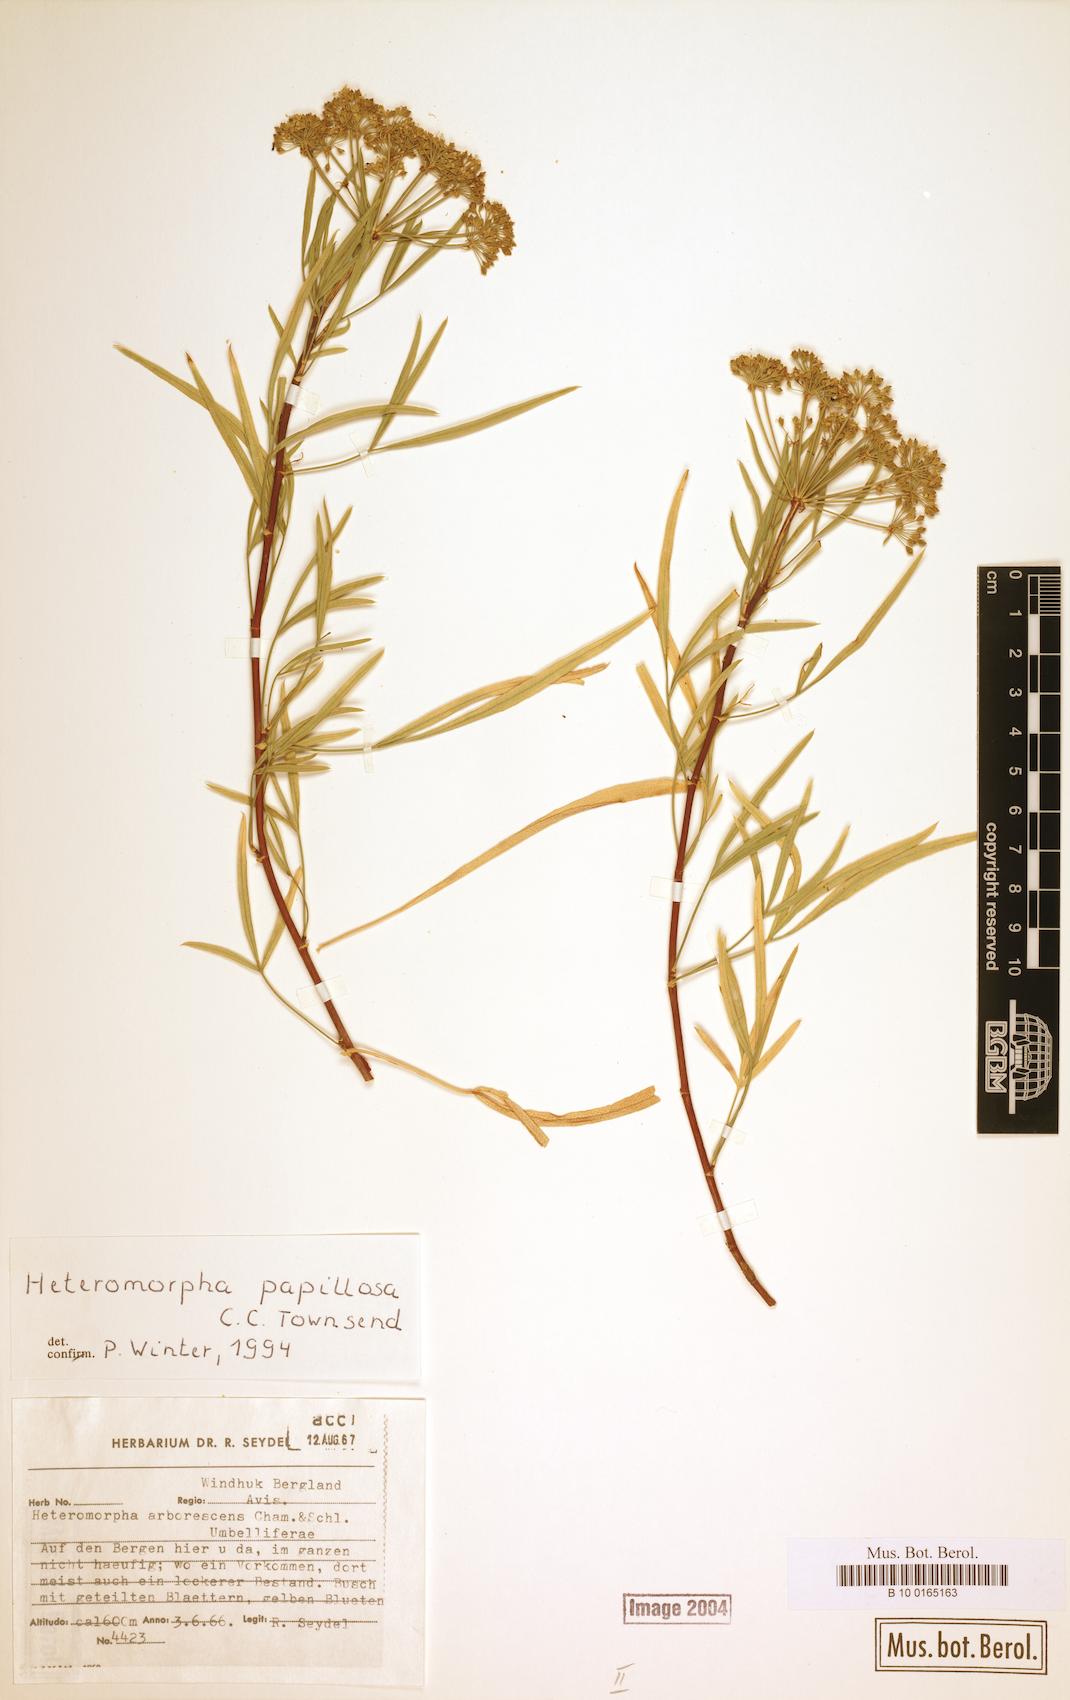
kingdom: Plantae
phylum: Tracheophyta
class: Magnoliopsida
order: Apiales
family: Apiaceae
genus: Heteromorpha
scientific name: Heteromorpha papillosa
